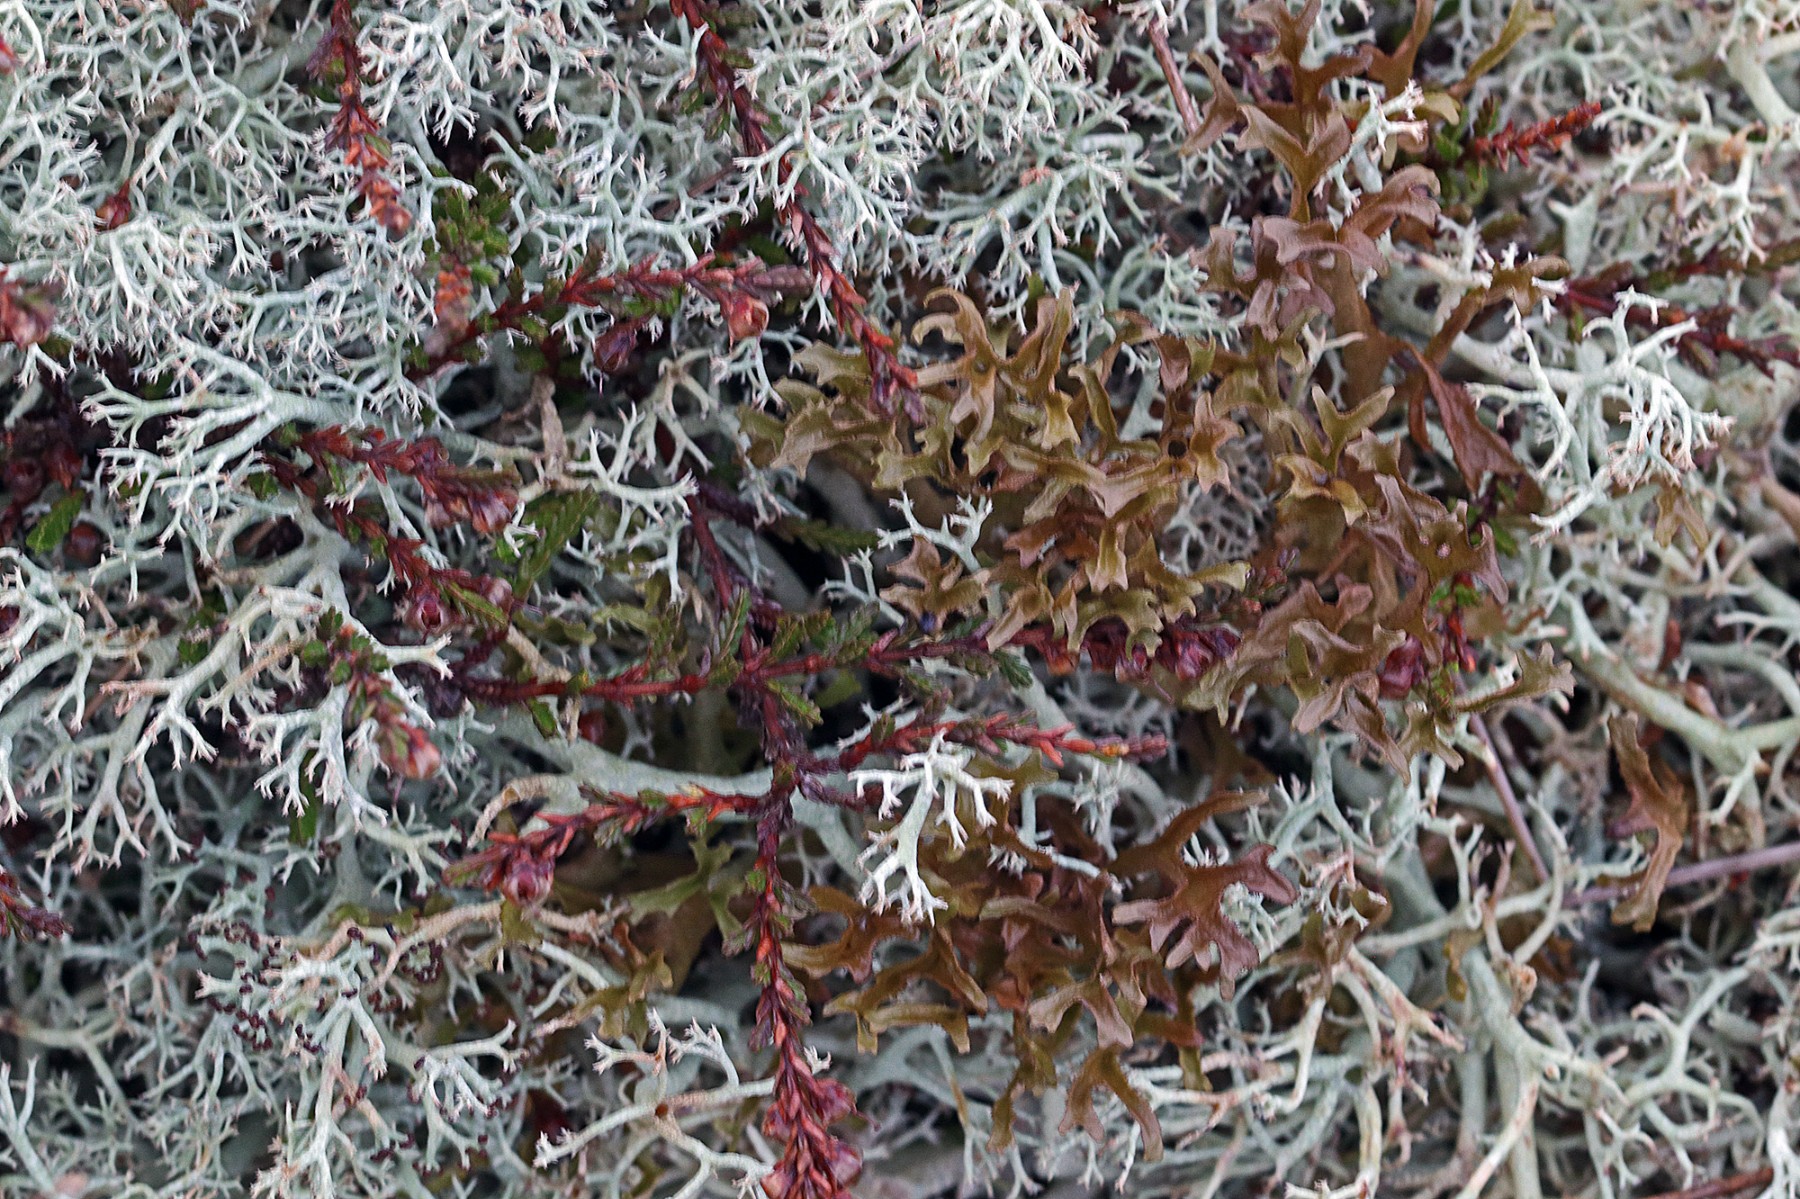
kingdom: Fungi
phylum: Ascomycota
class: Lecanoromycetes
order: Lecanorales
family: Parmeliaceae
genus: Cetraria
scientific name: Cetraria islandica
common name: islandsk kruslav
